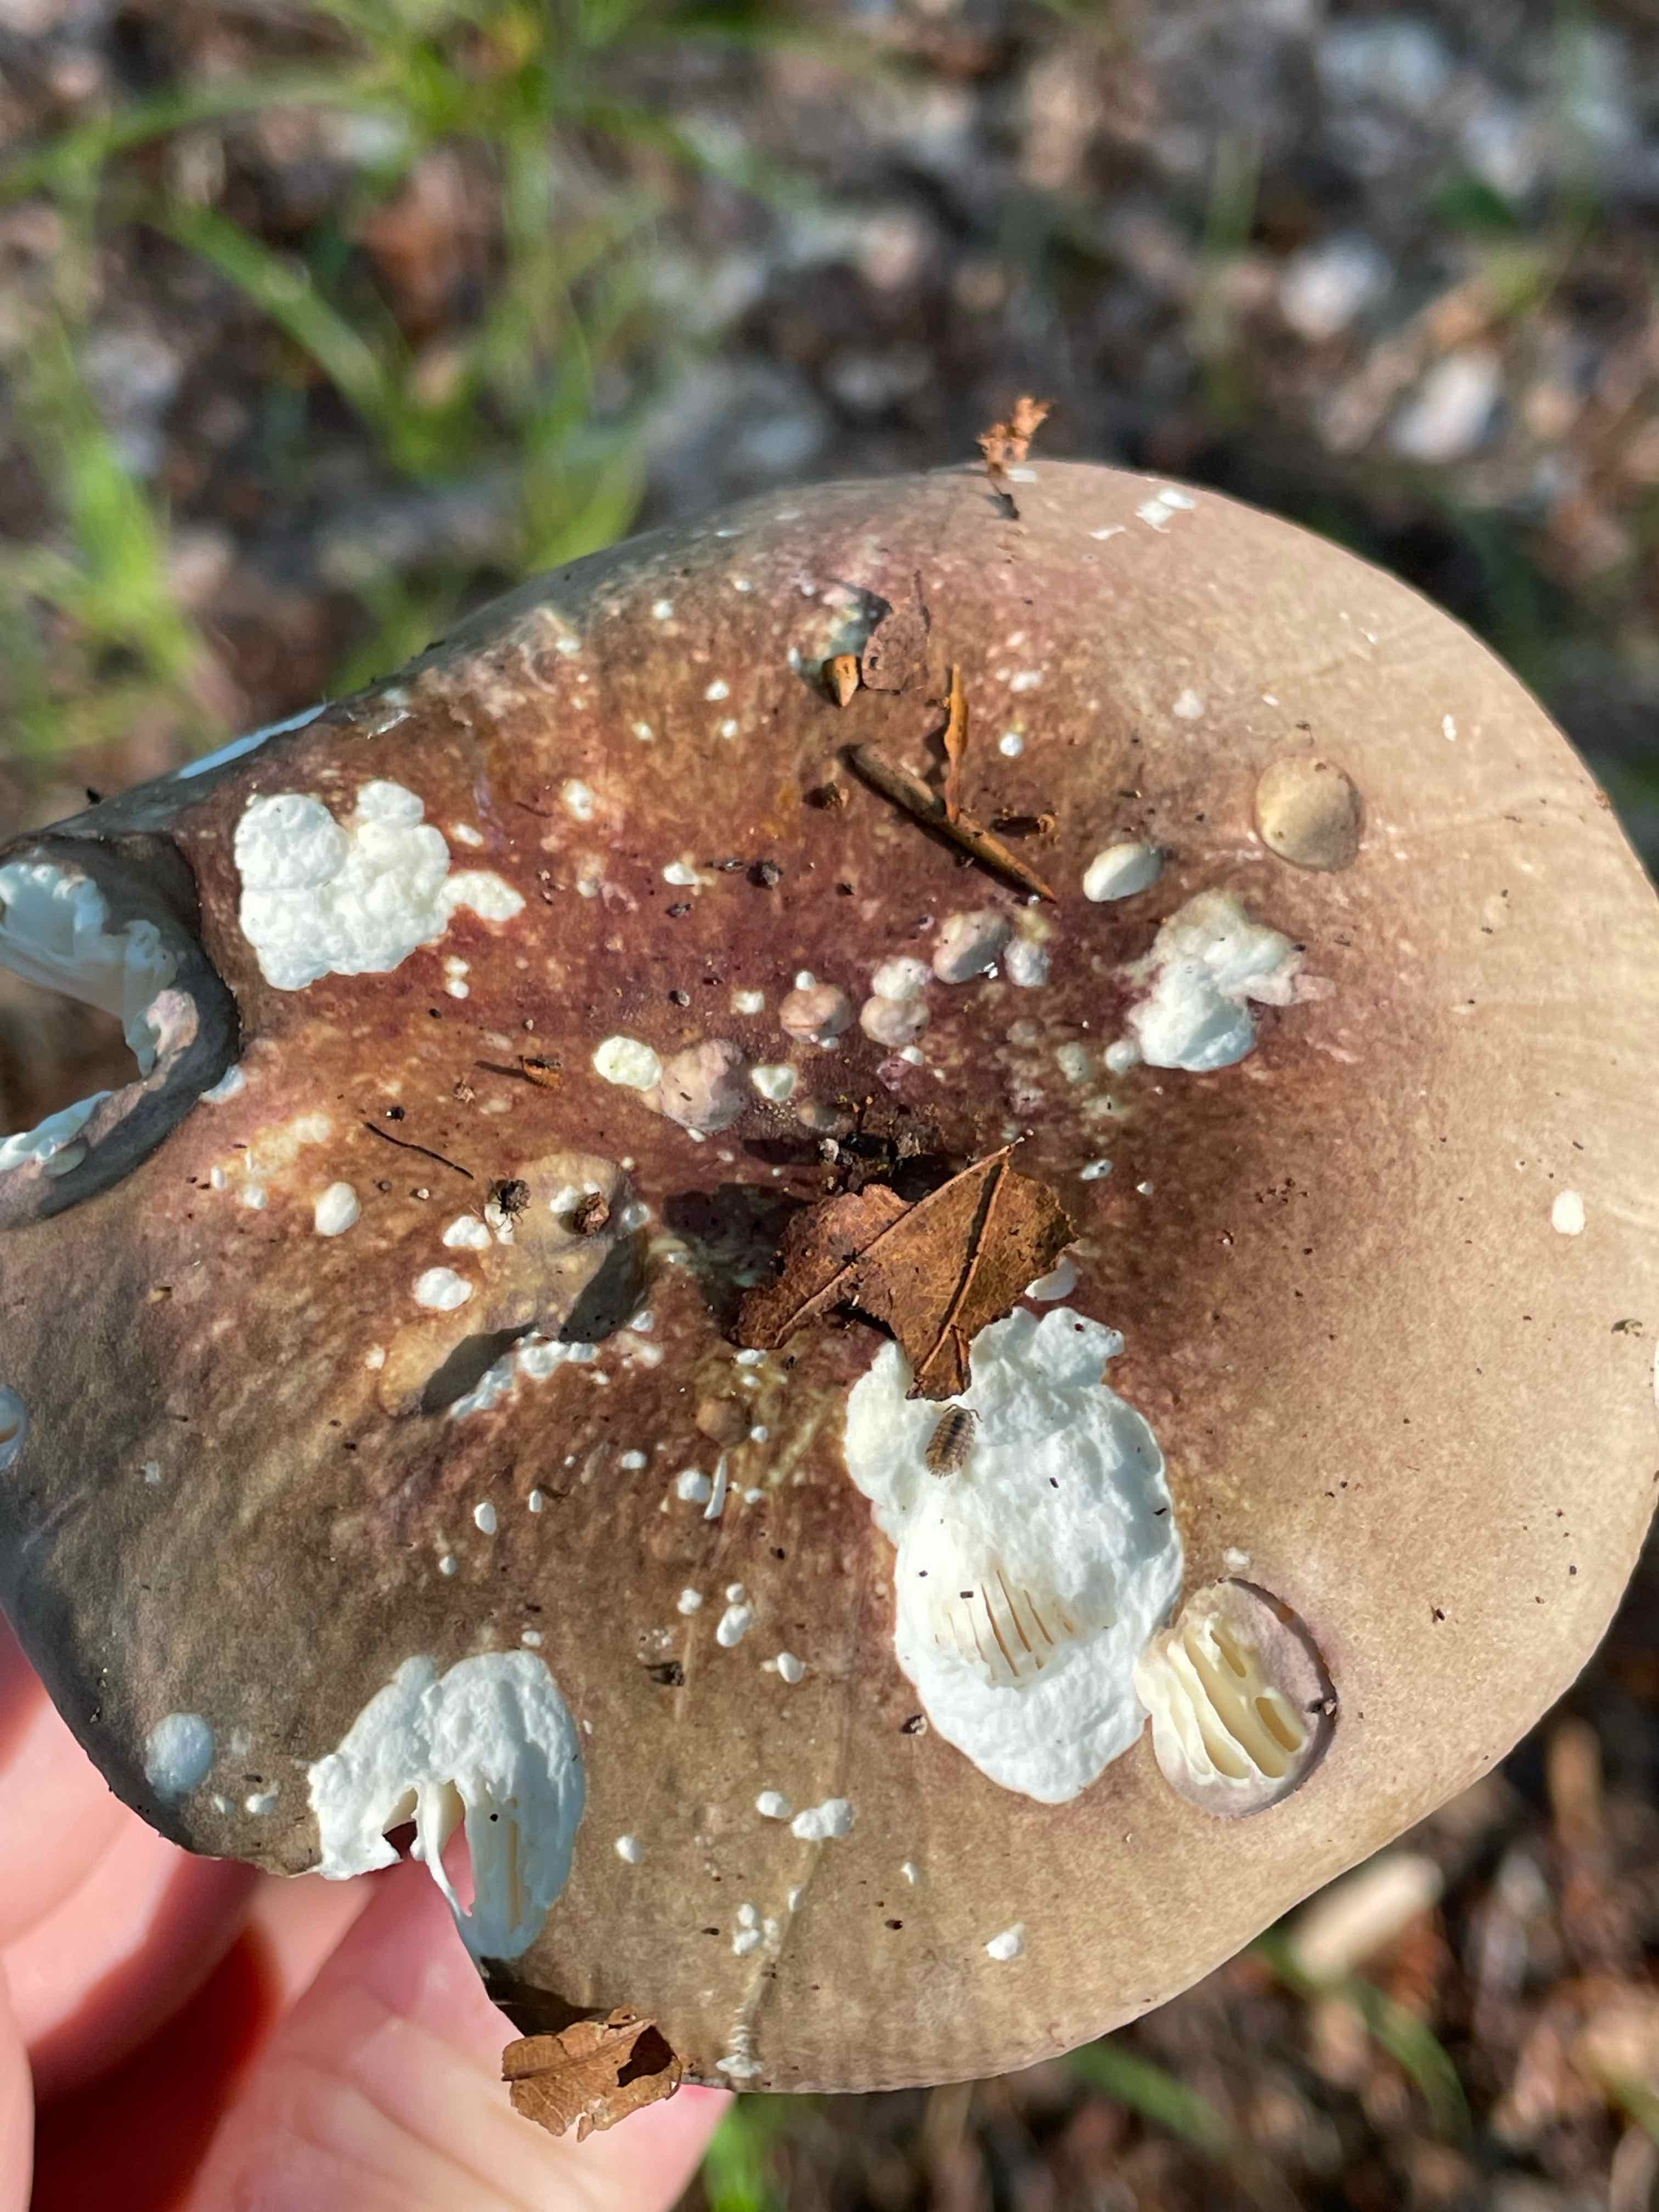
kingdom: Fungi
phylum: Basidiomycota
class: Agaricomycetes
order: Russulales
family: Russulaceae
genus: Russula
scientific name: Russula olivacea
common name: stor skørhat
